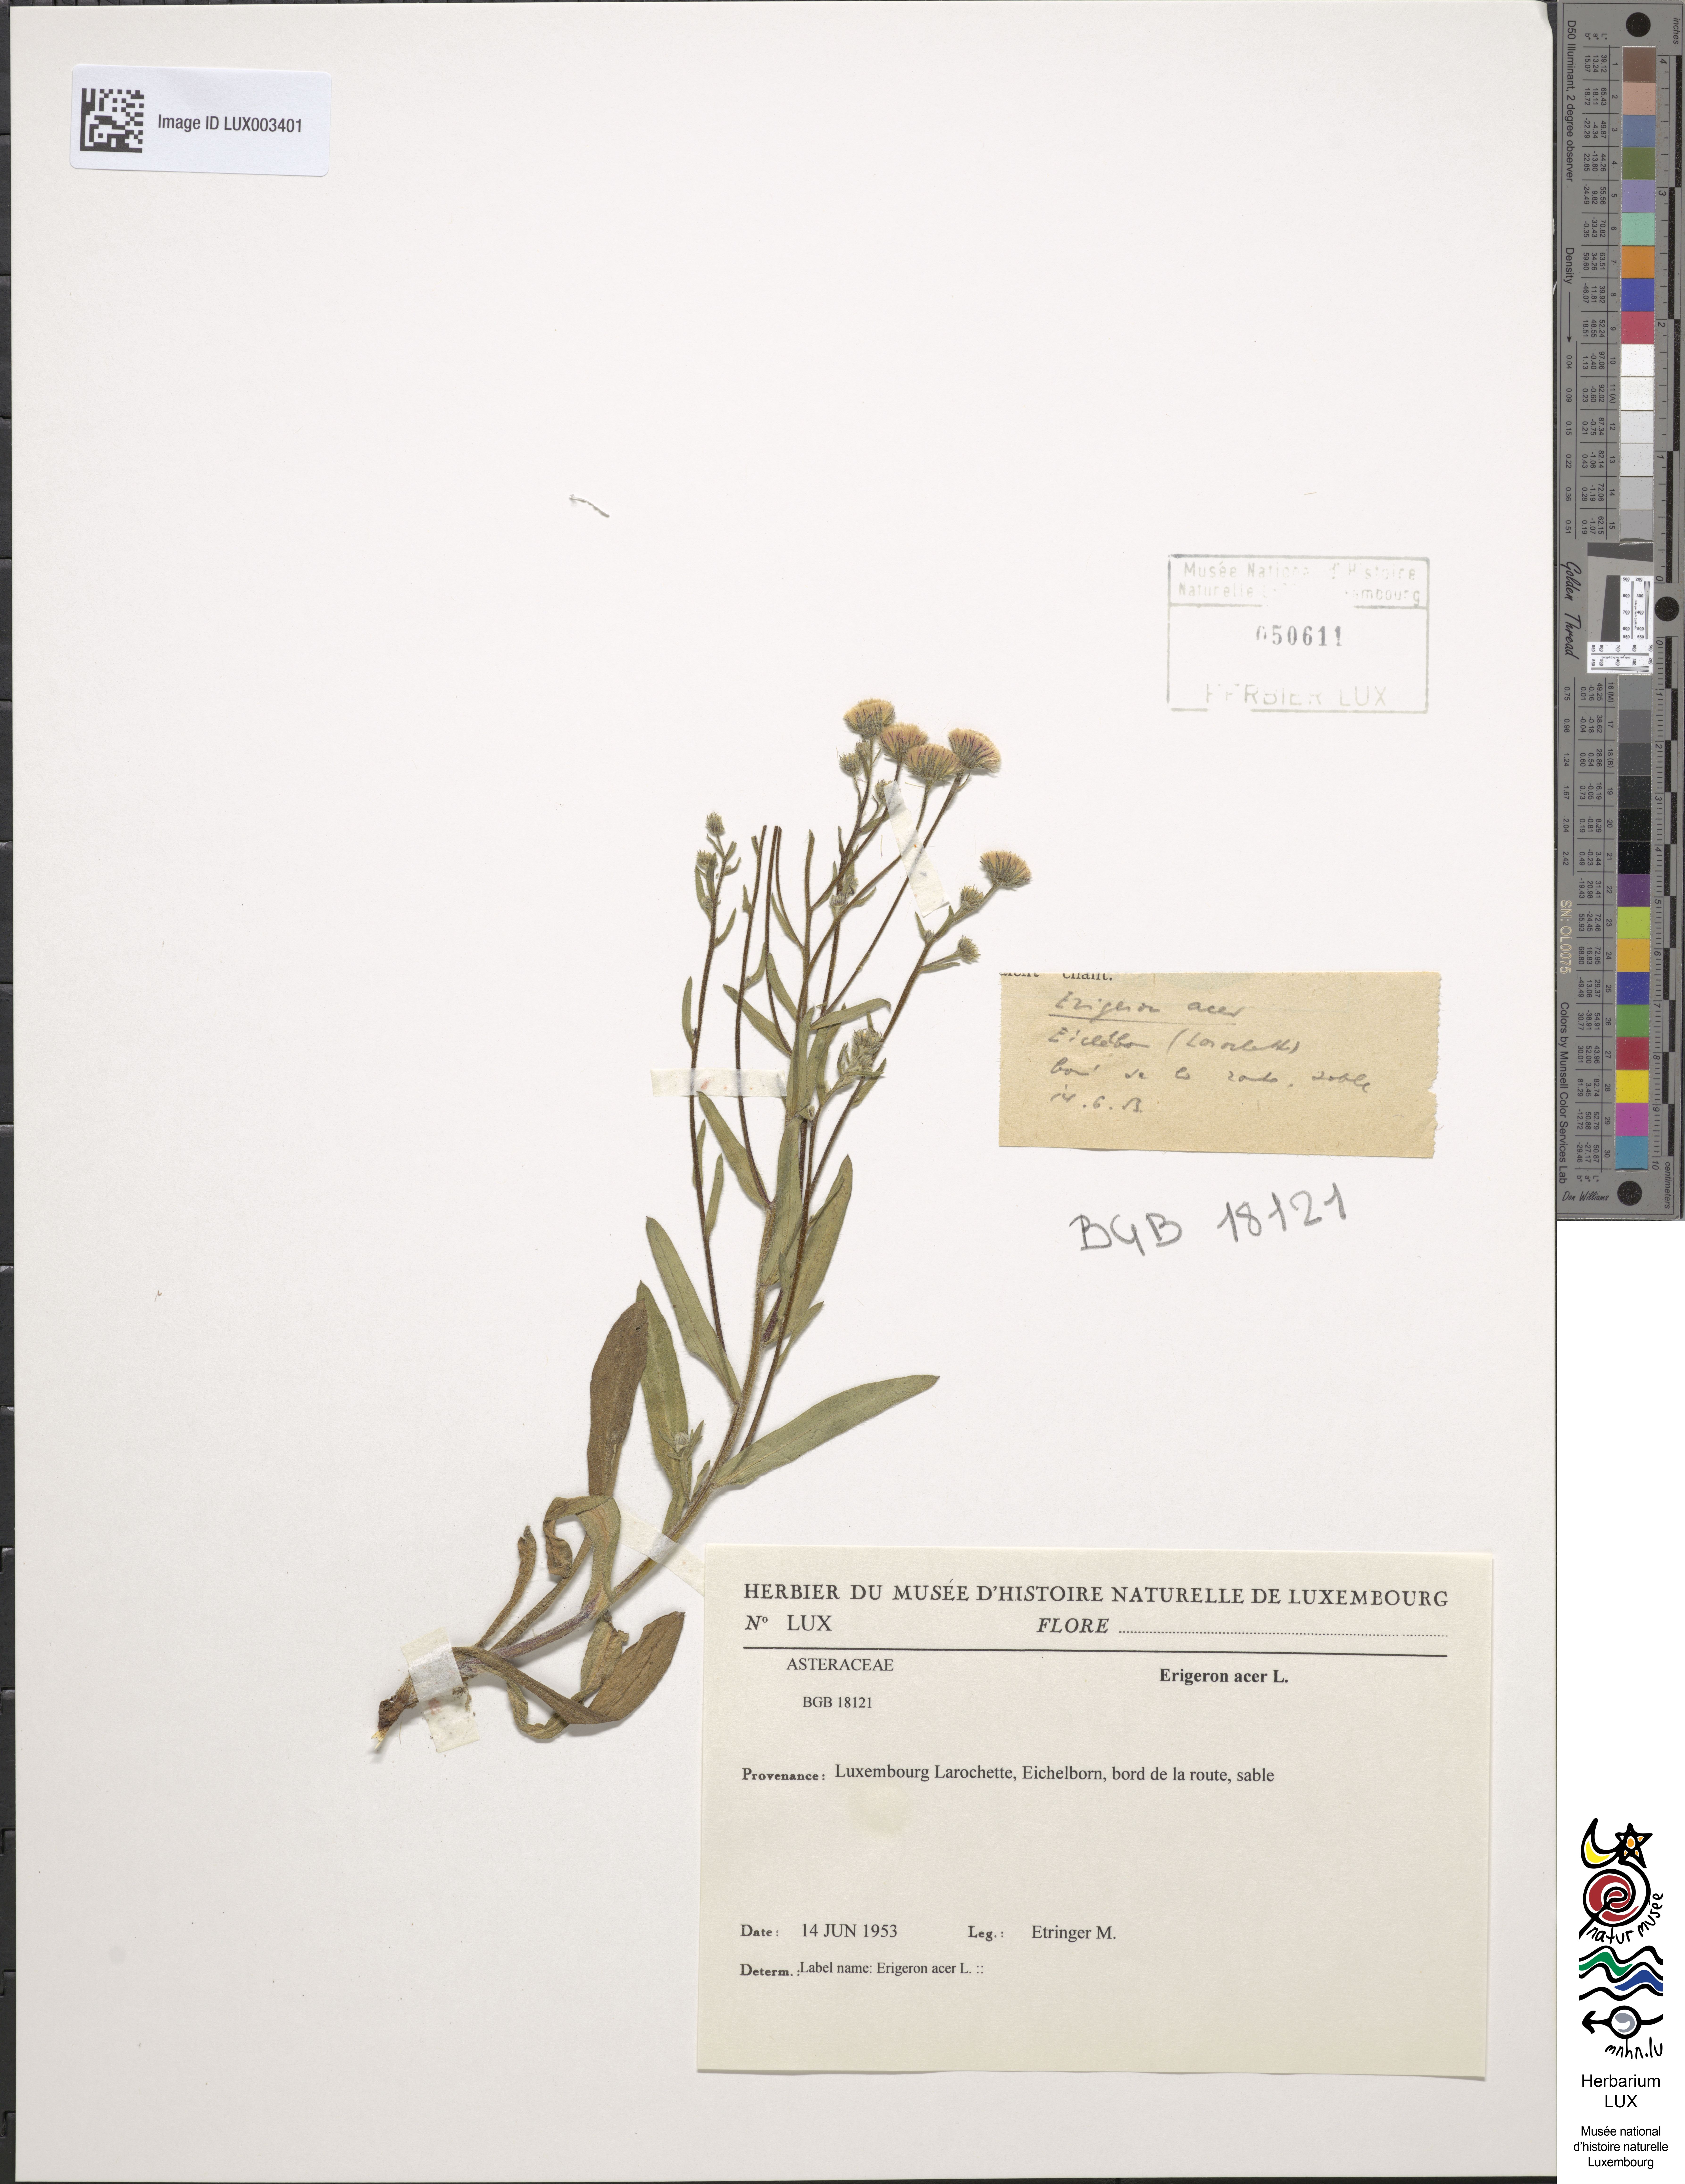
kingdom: Plantae
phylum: Tracheophyta
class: Magnoliopsida
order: Asterales
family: Asteraceae
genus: Erigeron
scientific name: Erigeron acer
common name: Blue fleabane
